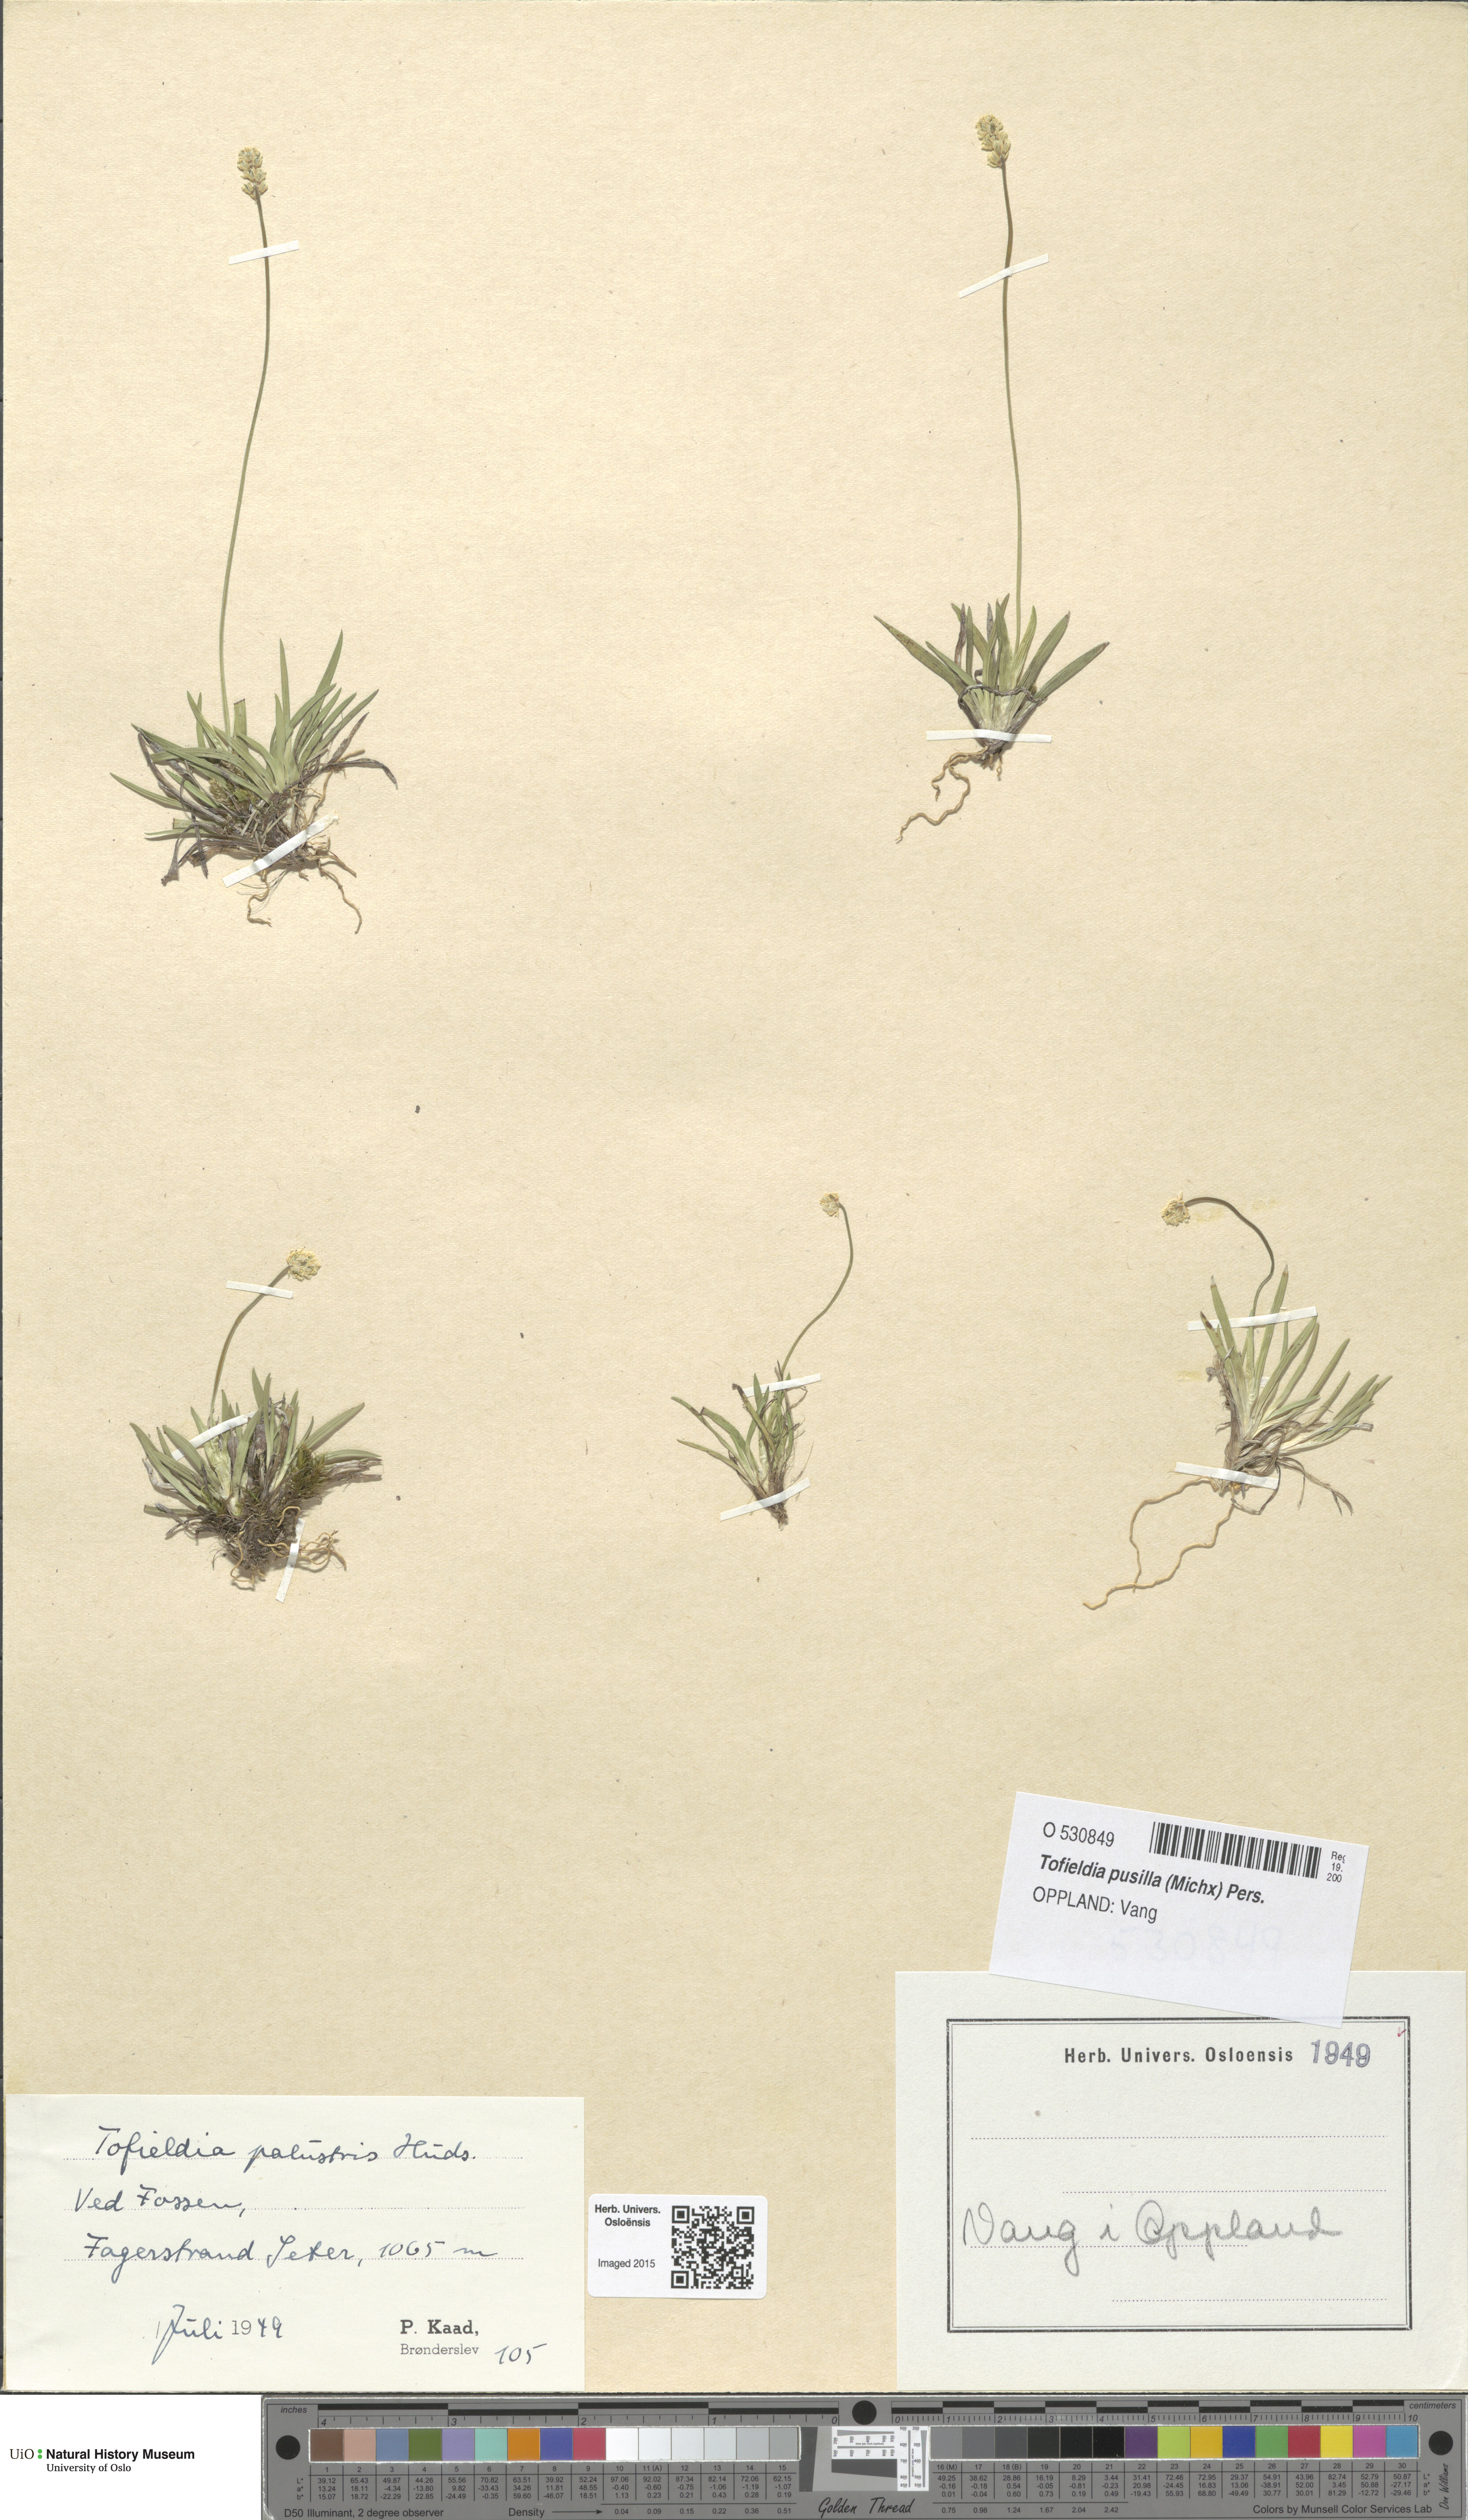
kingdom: Plantae
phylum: Tracheophyta
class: Liliopsida
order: Alismatales
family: Tofieldiaceae
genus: Tofieldia
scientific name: Tofieldia pusilla
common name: Scottish false asphodel
